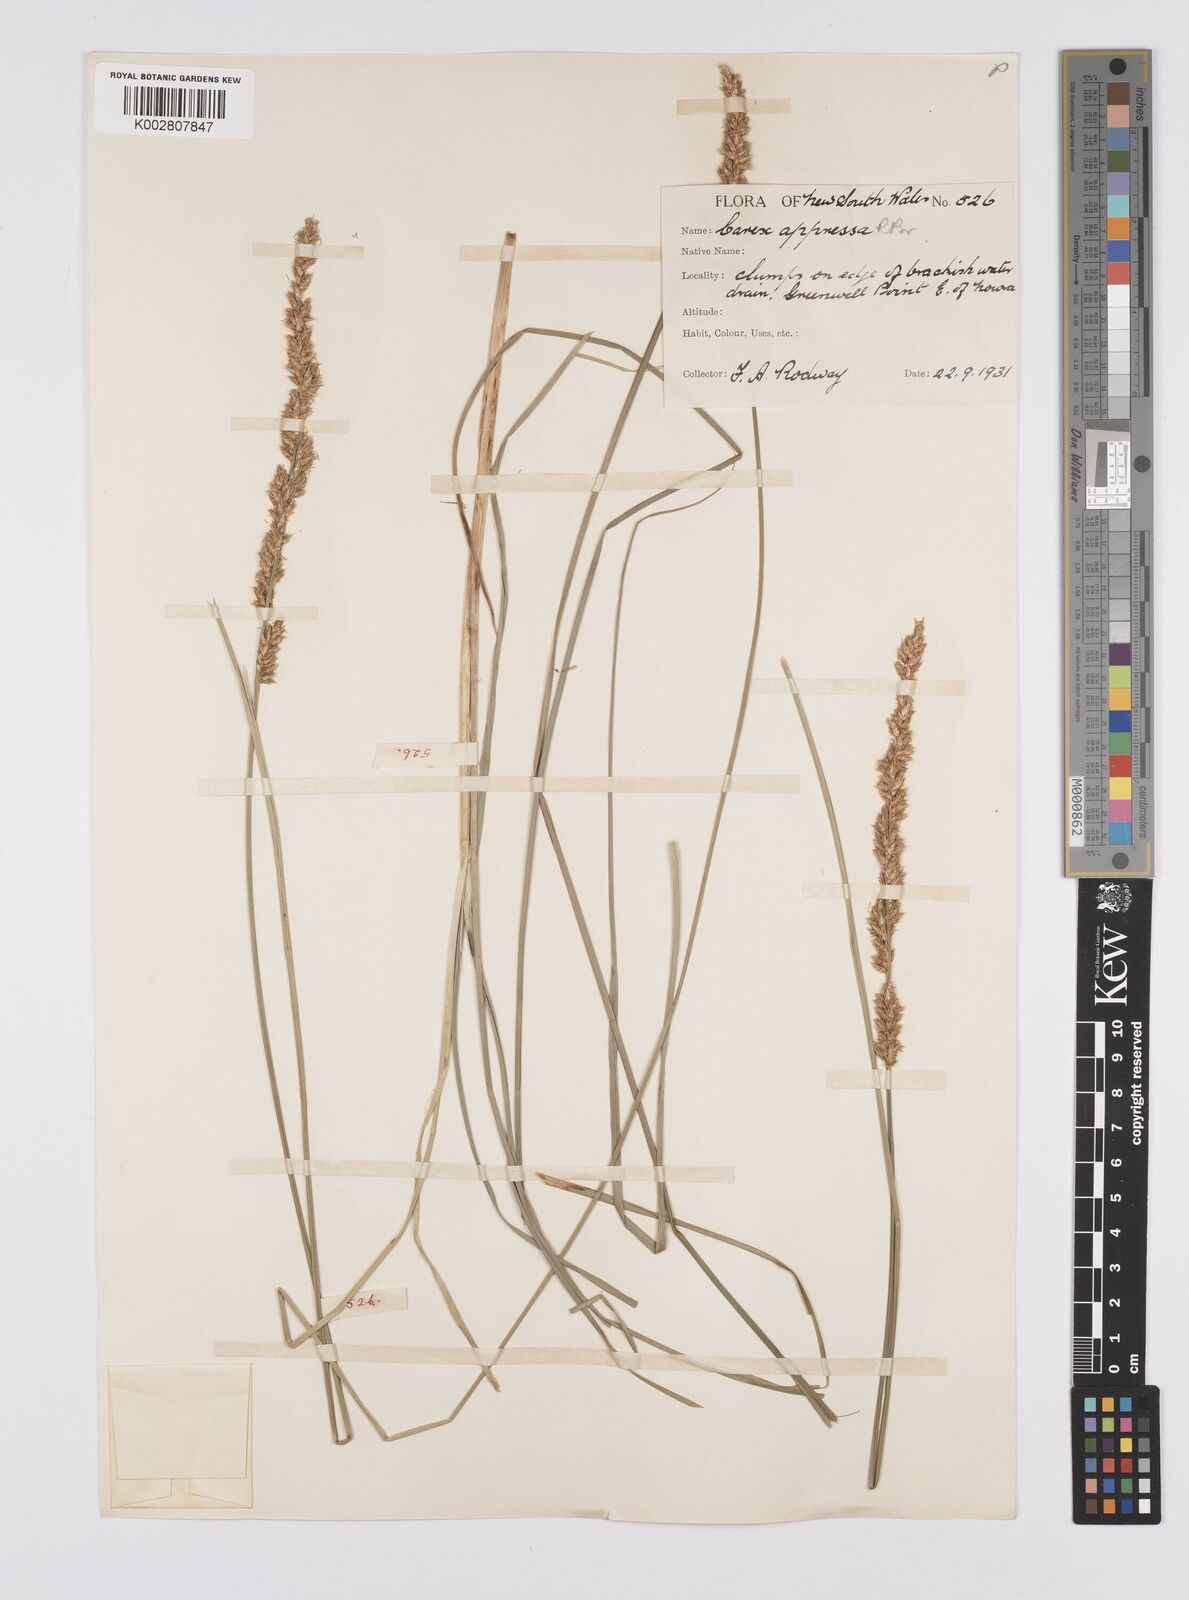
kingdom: Plantae
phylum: Tracheophyta
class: Liliopsida
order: Poales
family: Cyperaceae
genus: Carex
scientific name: Carex appressa
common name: Tussock sedge
